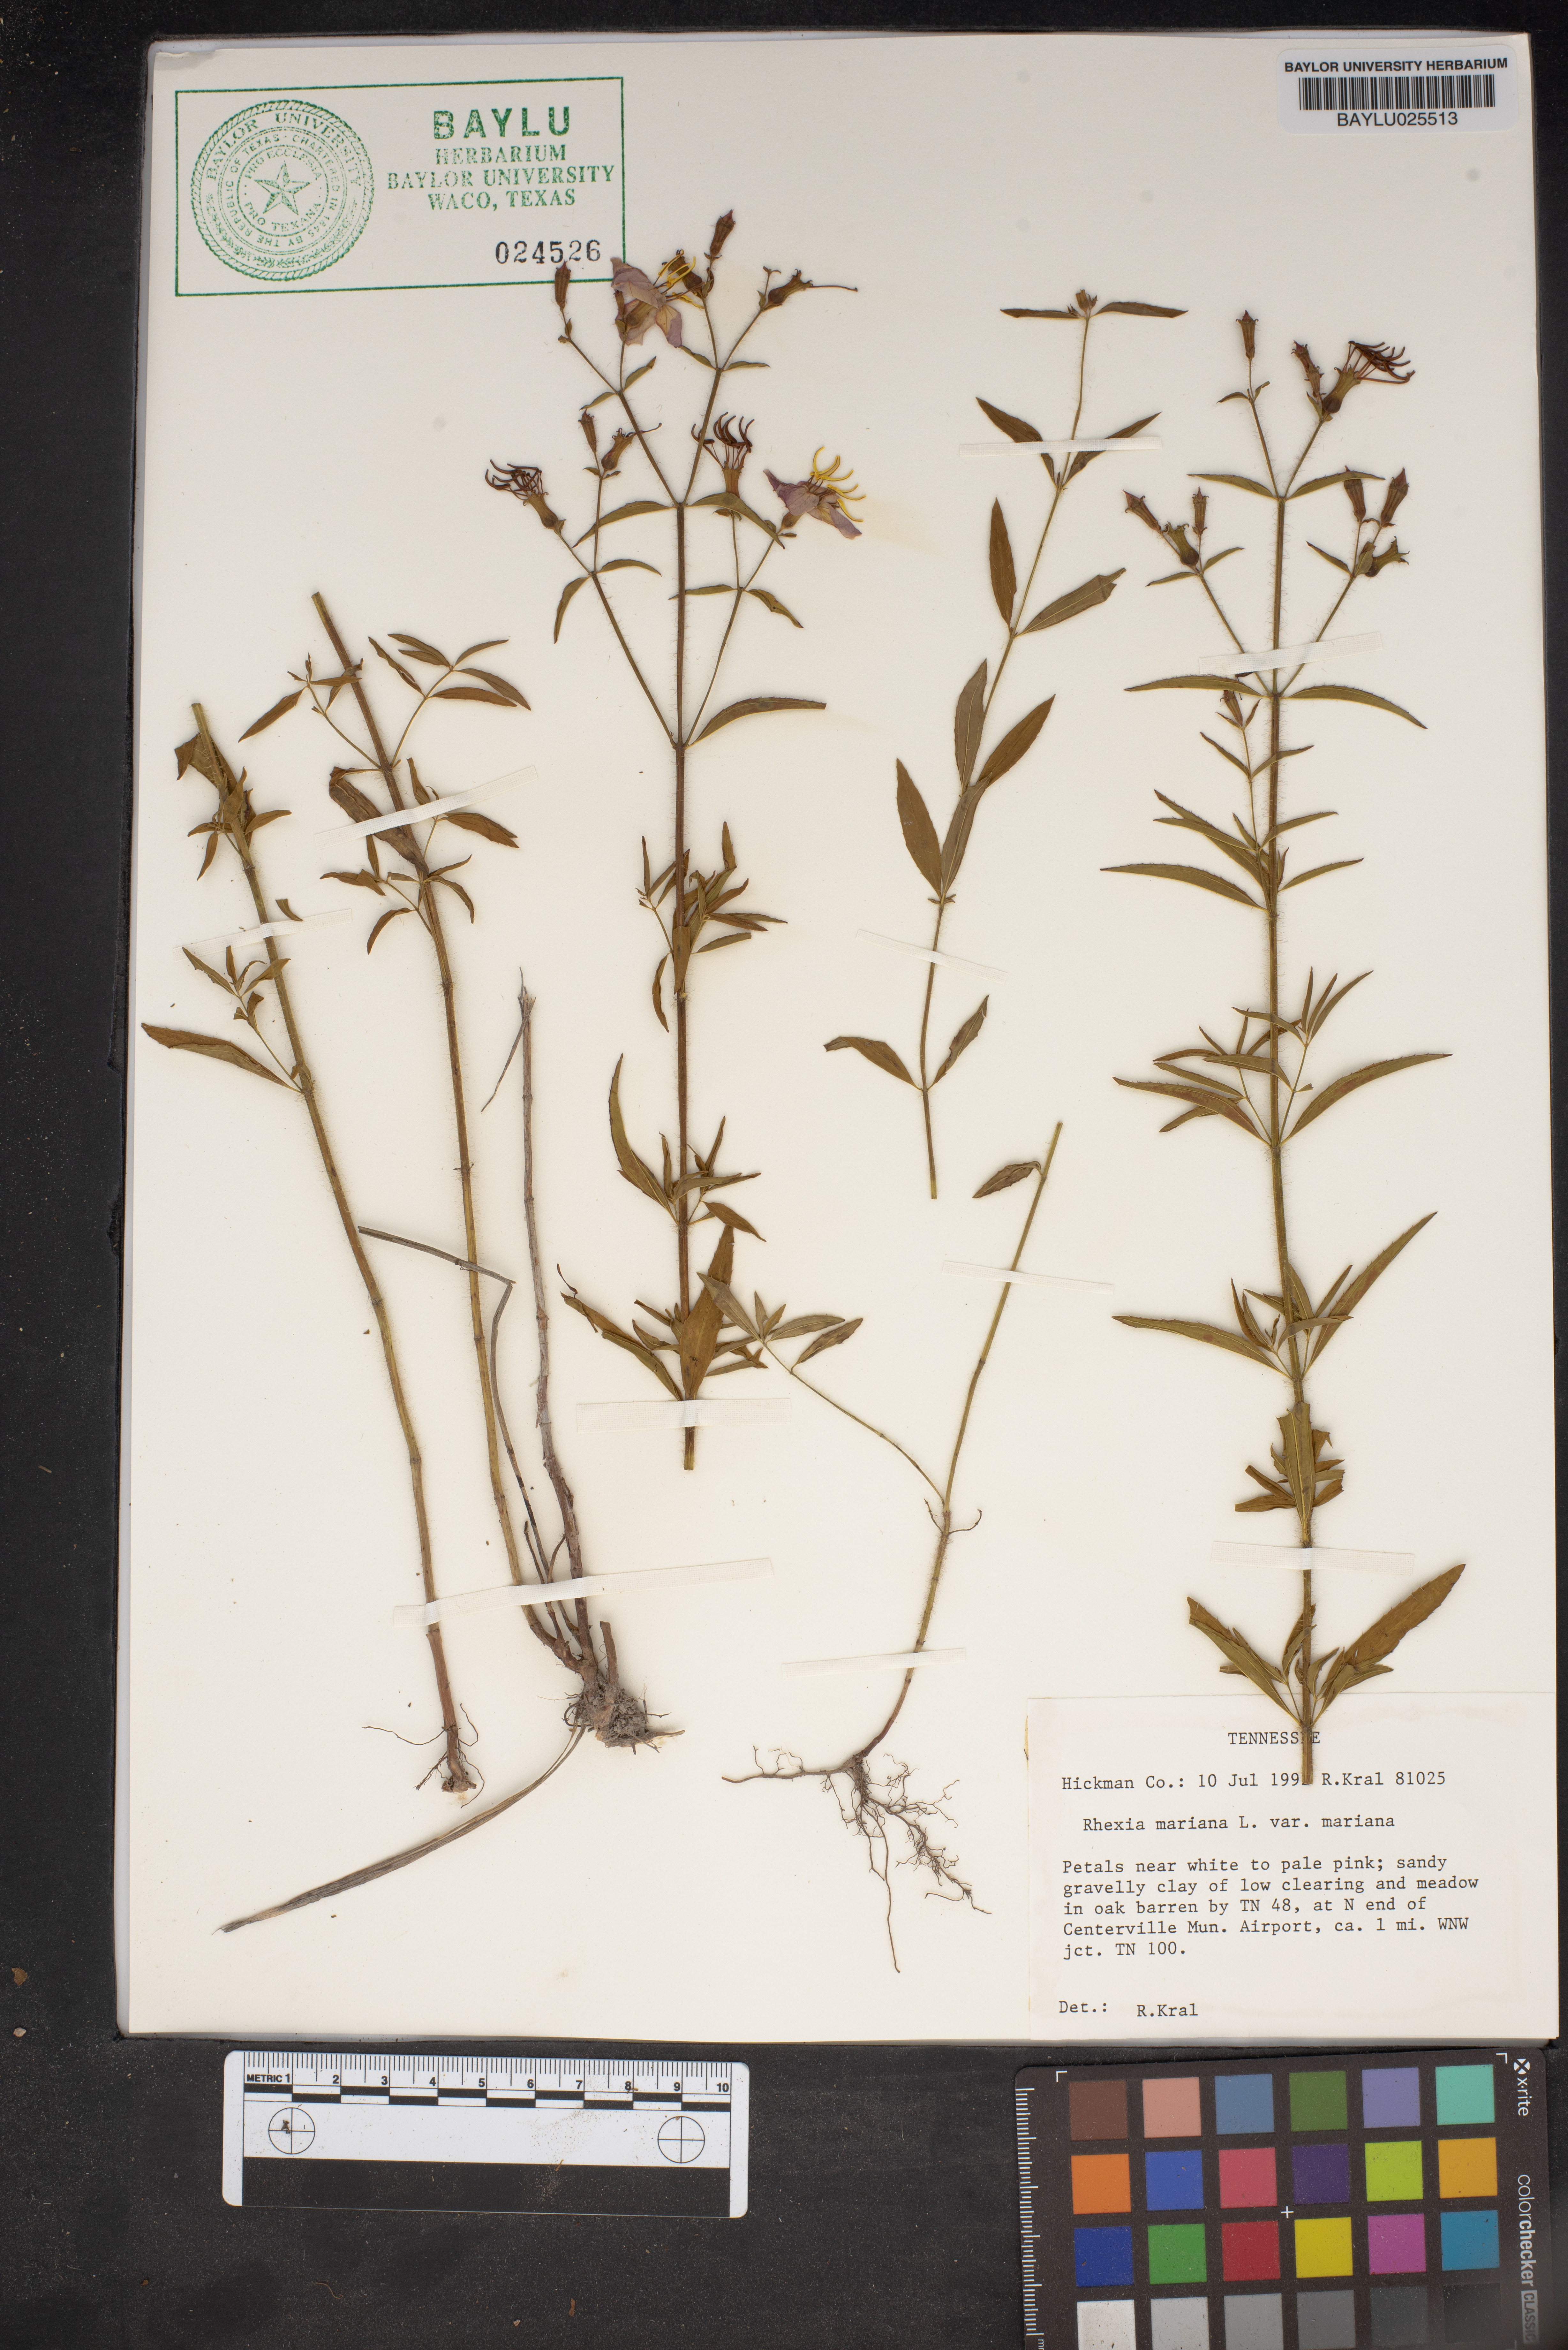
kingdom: Plantae
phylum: Tracheophyta
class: Magnoliopsida
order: Myrtales
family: Melastomataceae
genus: Rhexia
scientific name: Rhexia mariana
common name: Dull meadow-pitcher
